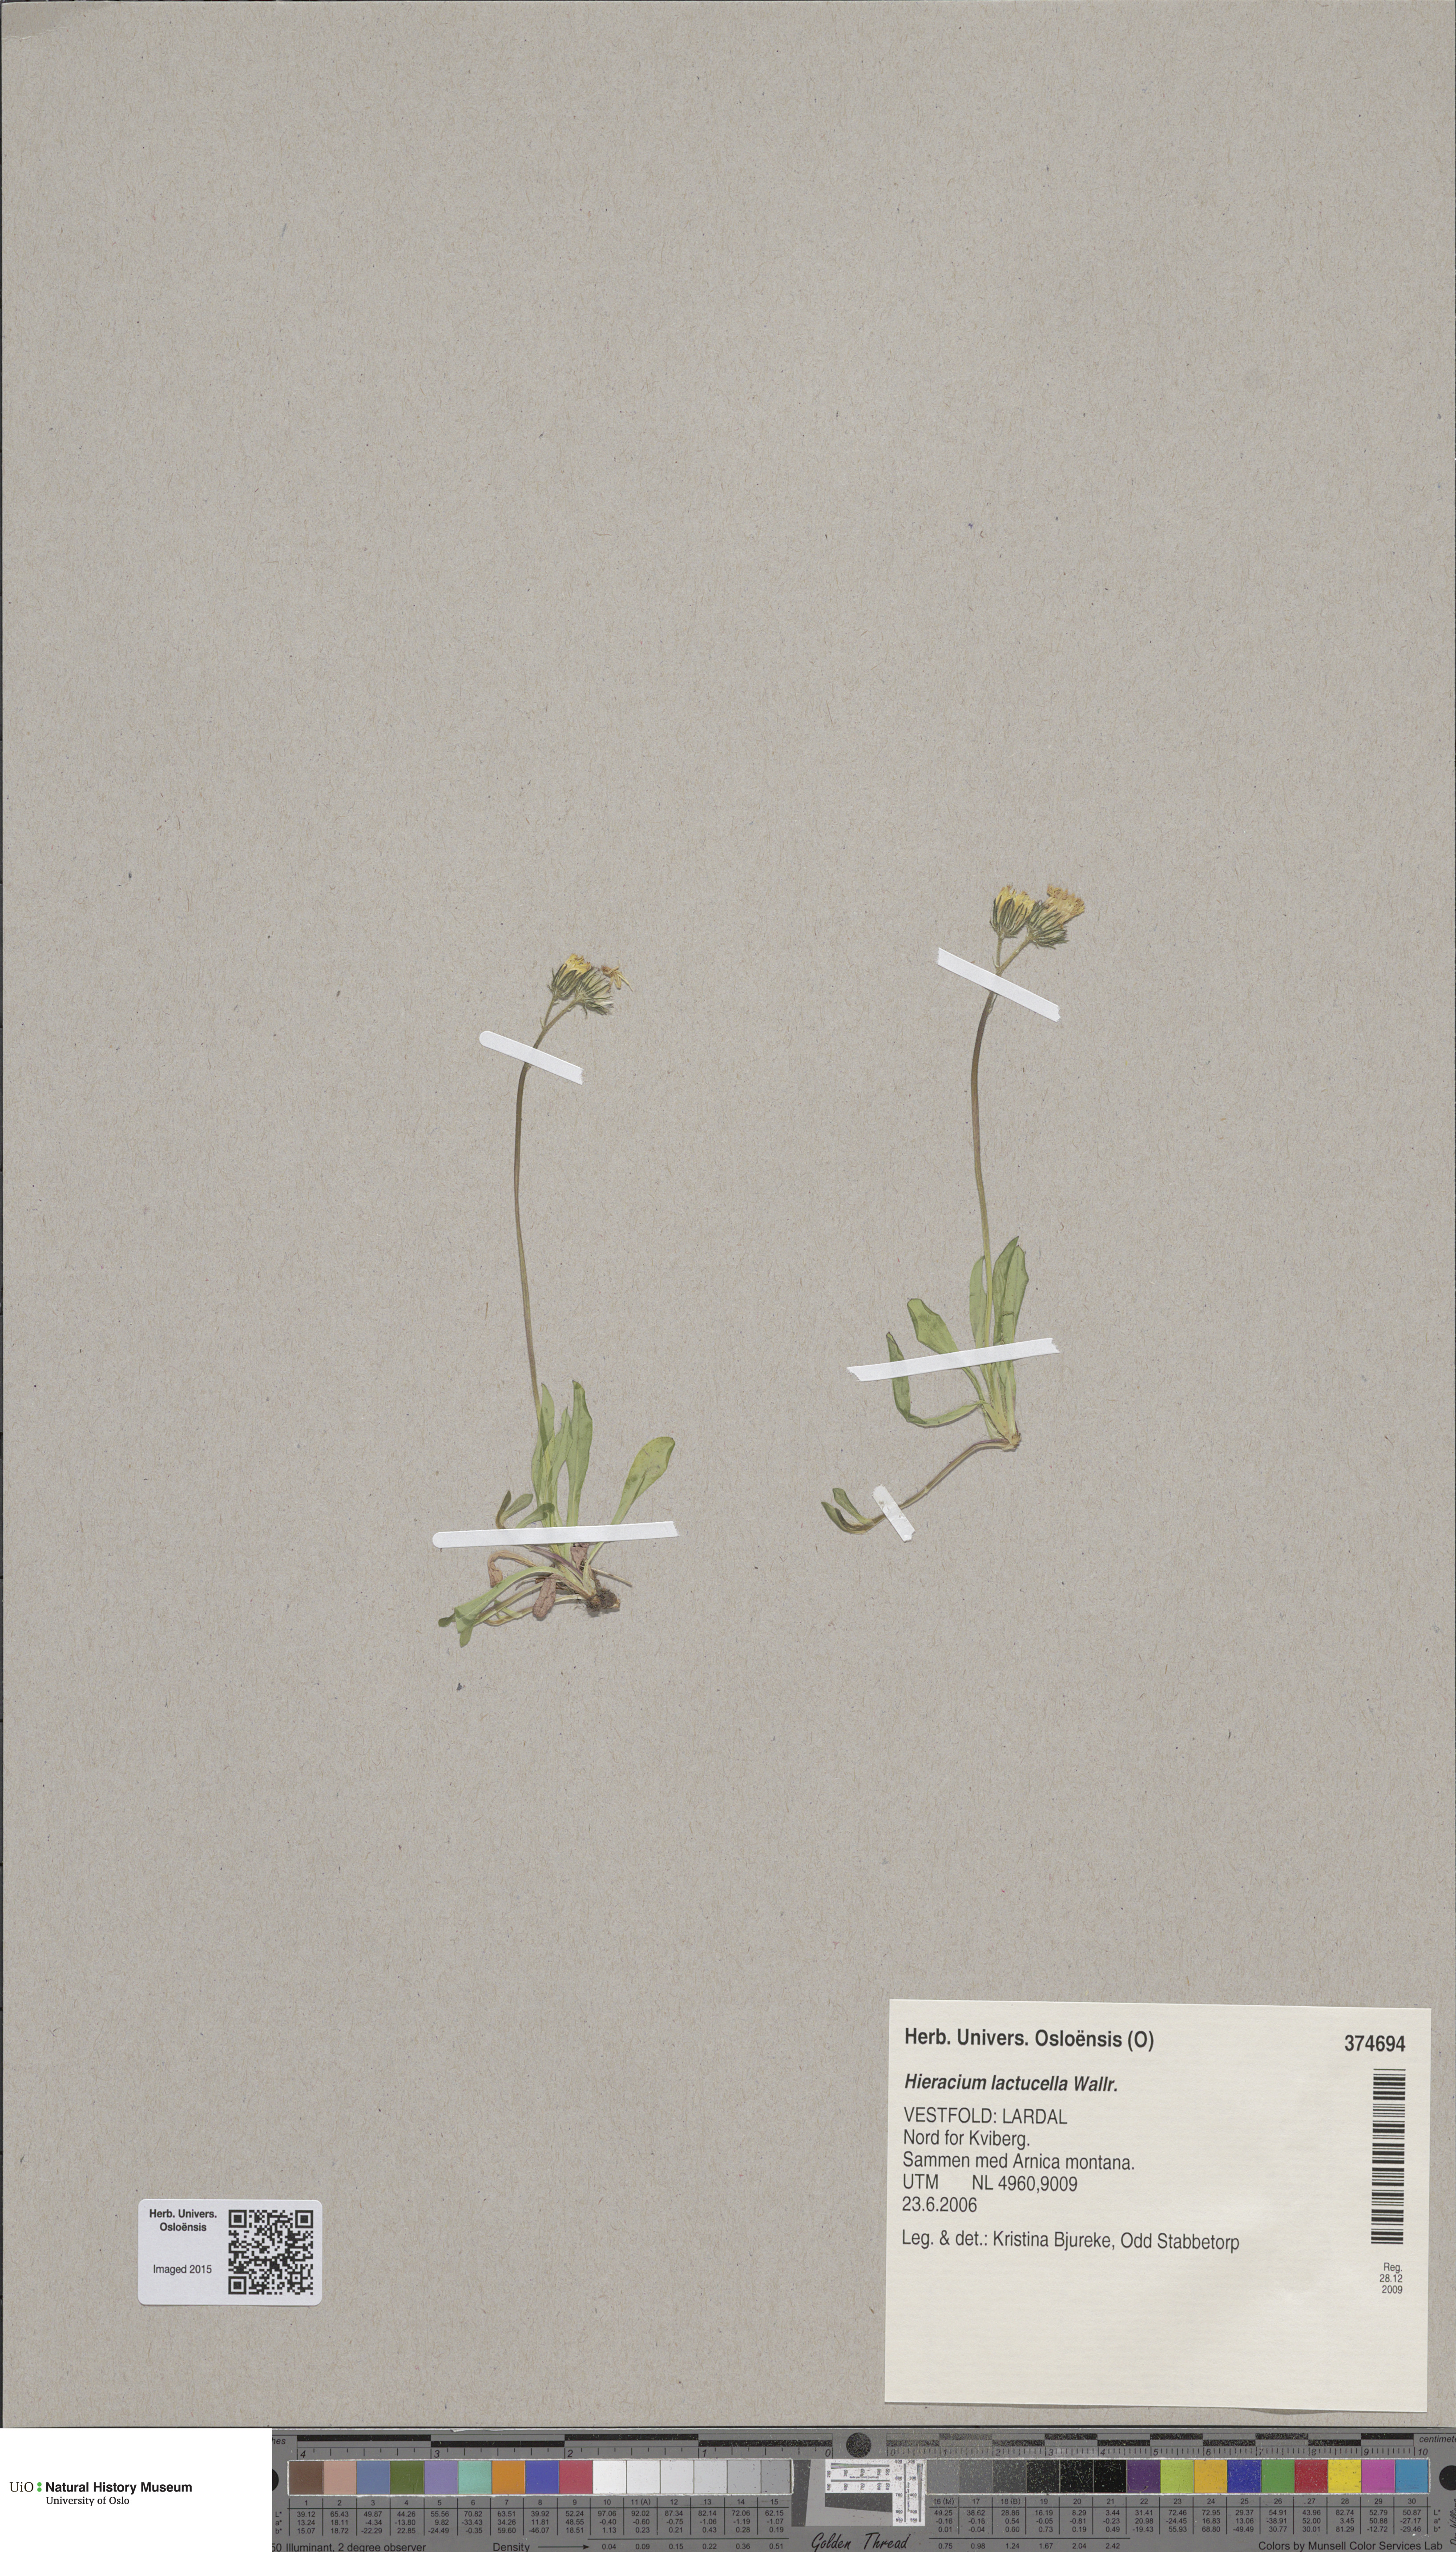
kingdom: Plantae
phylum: Tracheophyta
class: Magnoliopsida
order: Asterales
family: Asteraceae
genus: Pilosella
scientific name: Pilosella lactucella
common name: Glaucous fox-and-cubs
